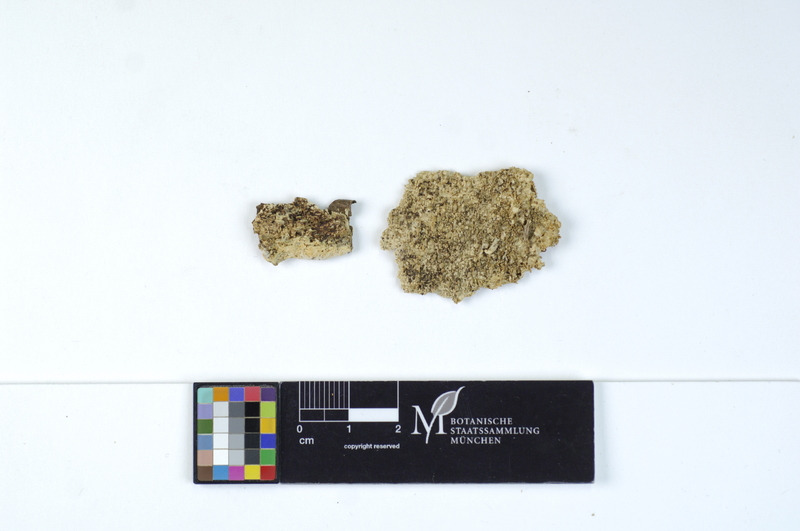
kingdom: Plantae
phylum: Tracheophyta
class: Magnoliopsida
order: Fagales
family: Fagaceae
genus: Fagus
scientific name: Fagus sylvatica
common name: Beech
